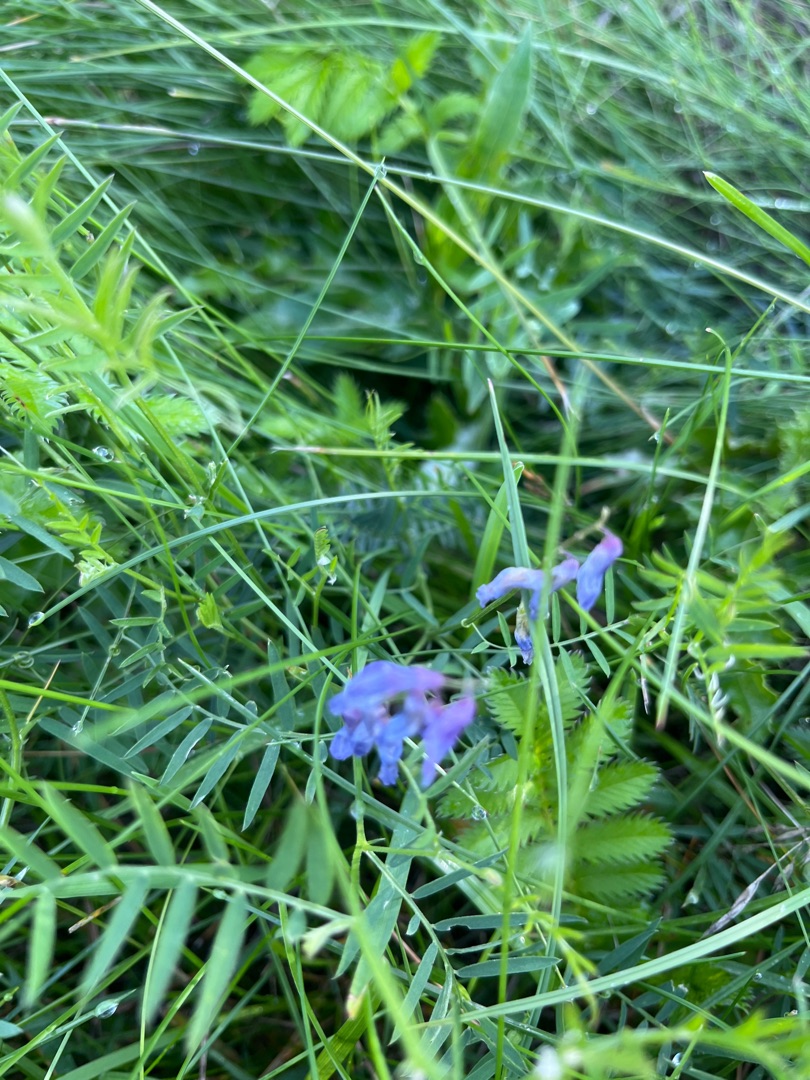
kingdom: Plantae
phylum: Tracheophyta
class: Magnoliopsida
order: Fabales
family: Fabaceae
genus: Vicia
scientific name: Vicia cracca
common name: Muse-vikke
